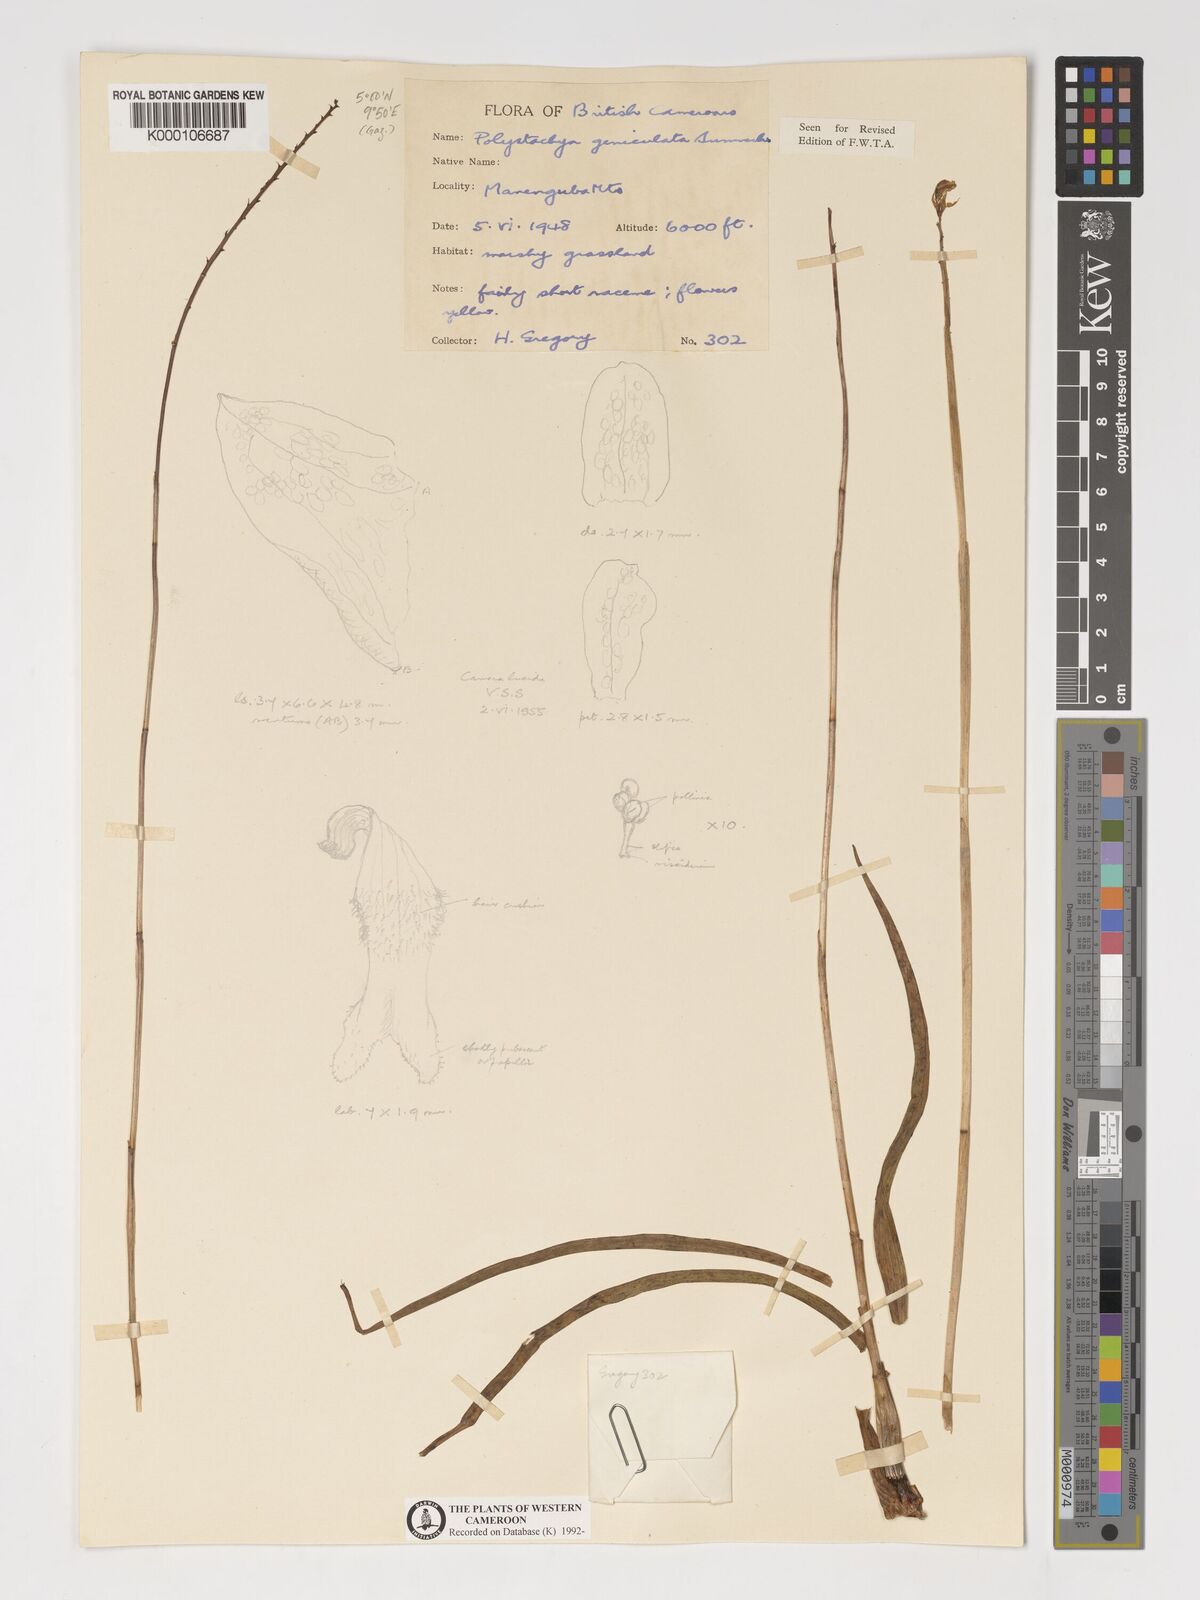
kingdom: Plantae
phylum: Tracheophyta
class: Liliopsida
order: Asparagales
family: Orchidaceae
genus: Polystachya
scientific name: Polystachya geniculata
